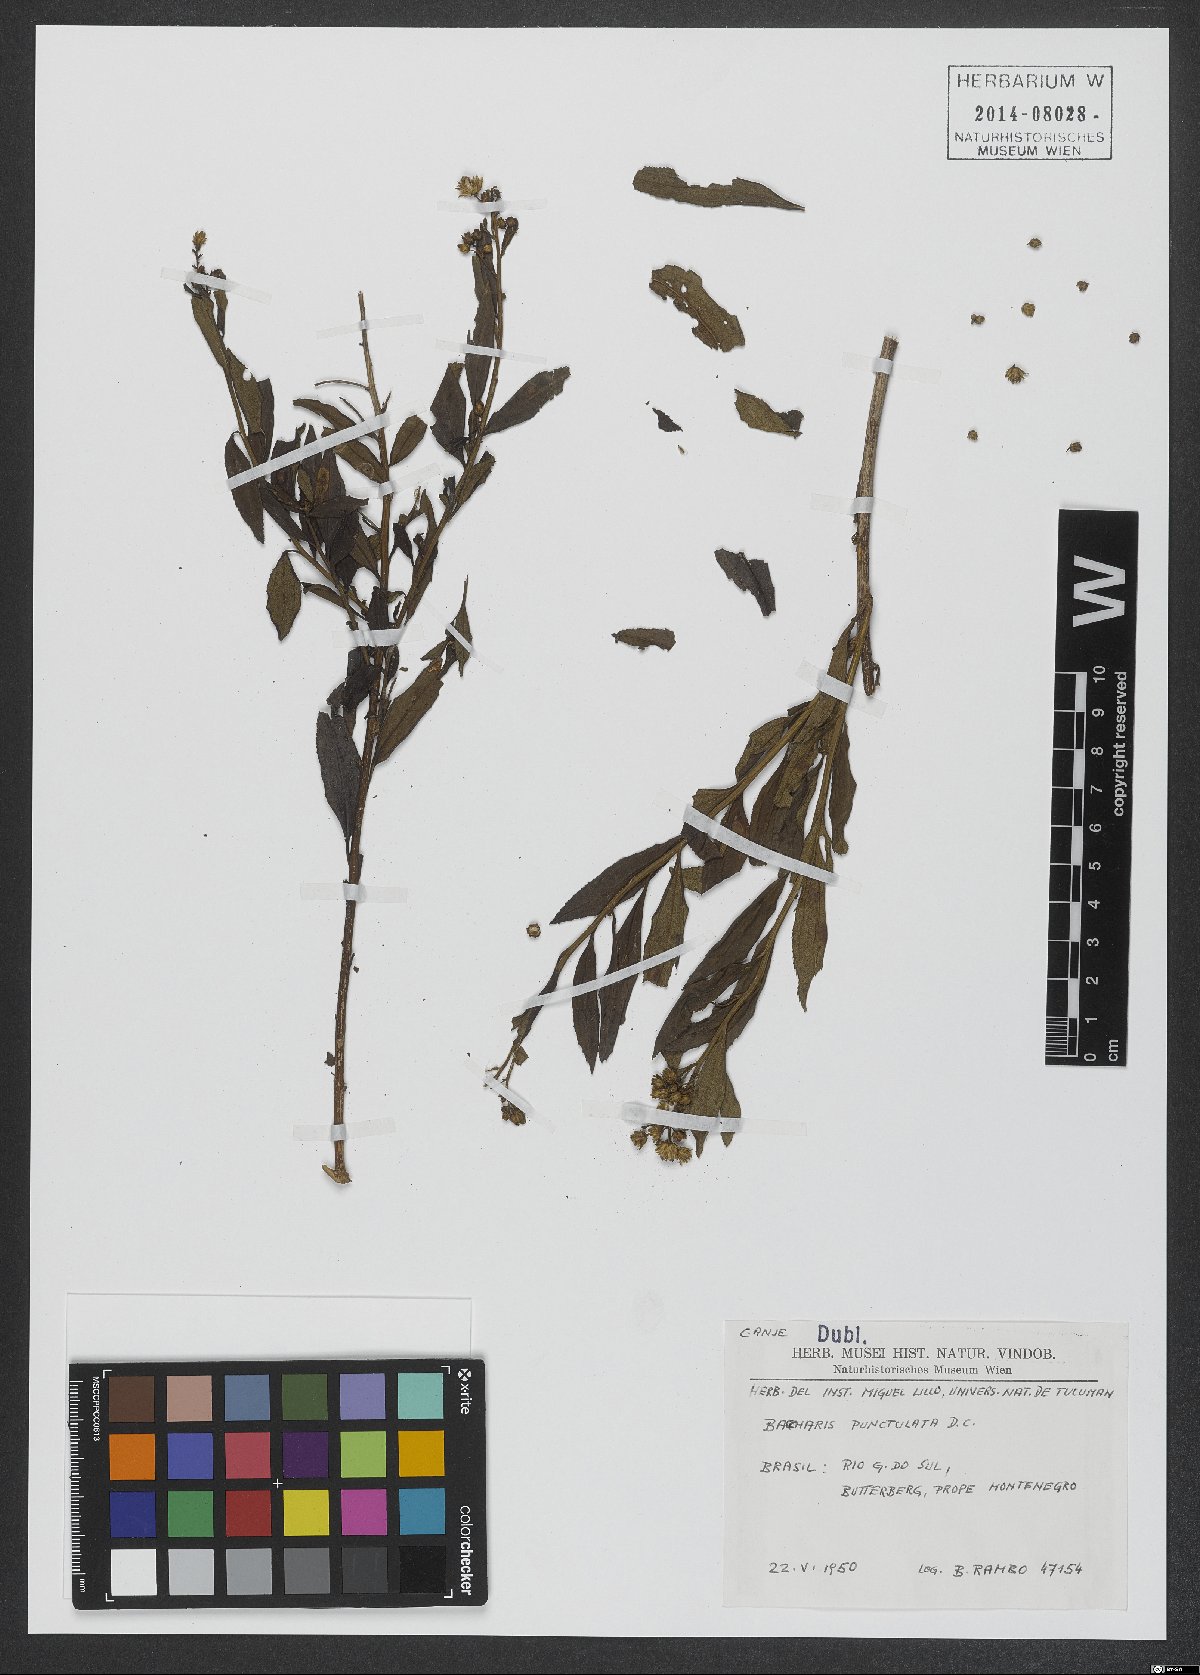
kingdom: Plantae
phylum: Tracheophyta
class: Magnoliopsida
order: Asterales
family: Asteraceae
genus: Baccharis
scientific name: Baccharis punctulata
